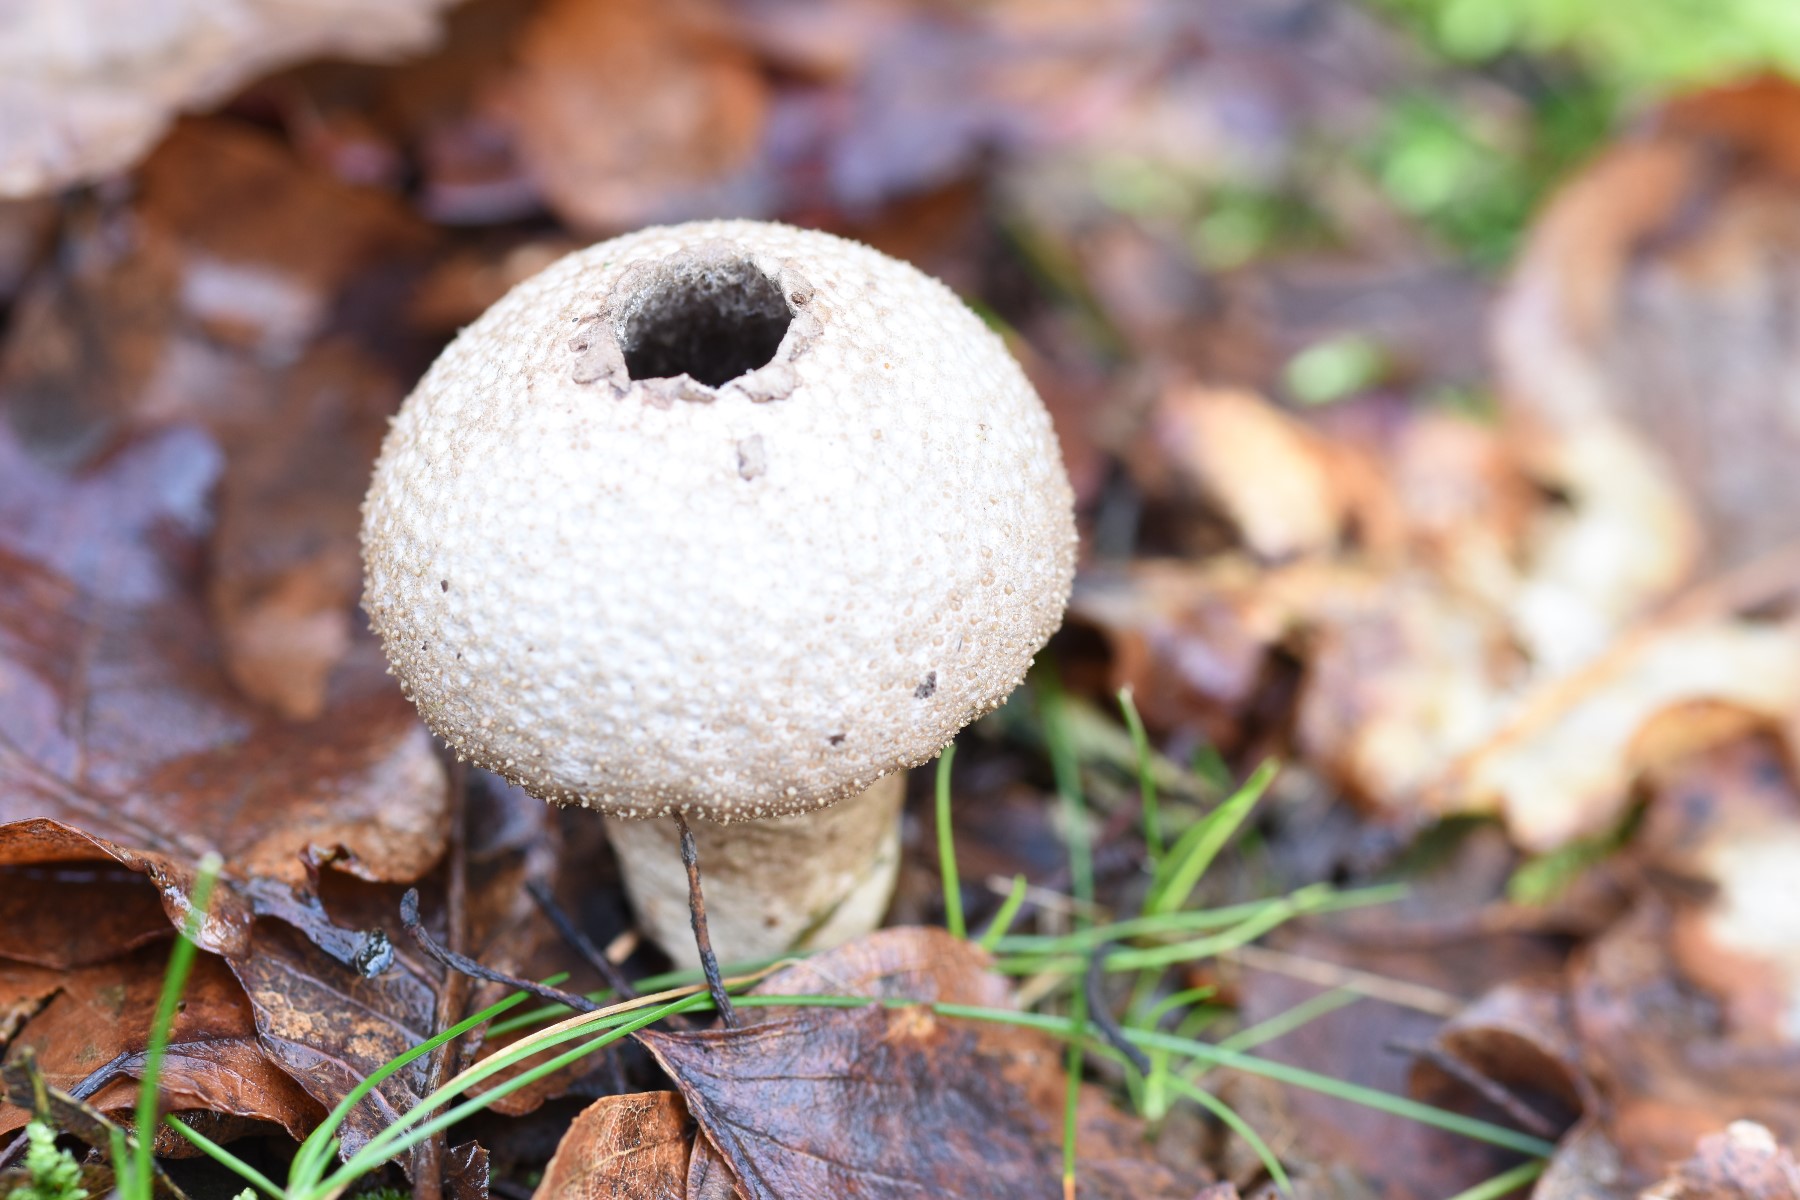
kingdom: Fungi
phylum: Basidiomycota
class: Agaricomycetes
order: Agaricales
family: Lycoperdaceae
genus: Lycoperdon
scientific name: Lycoperdon perlatum
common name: krystal-støvbold
